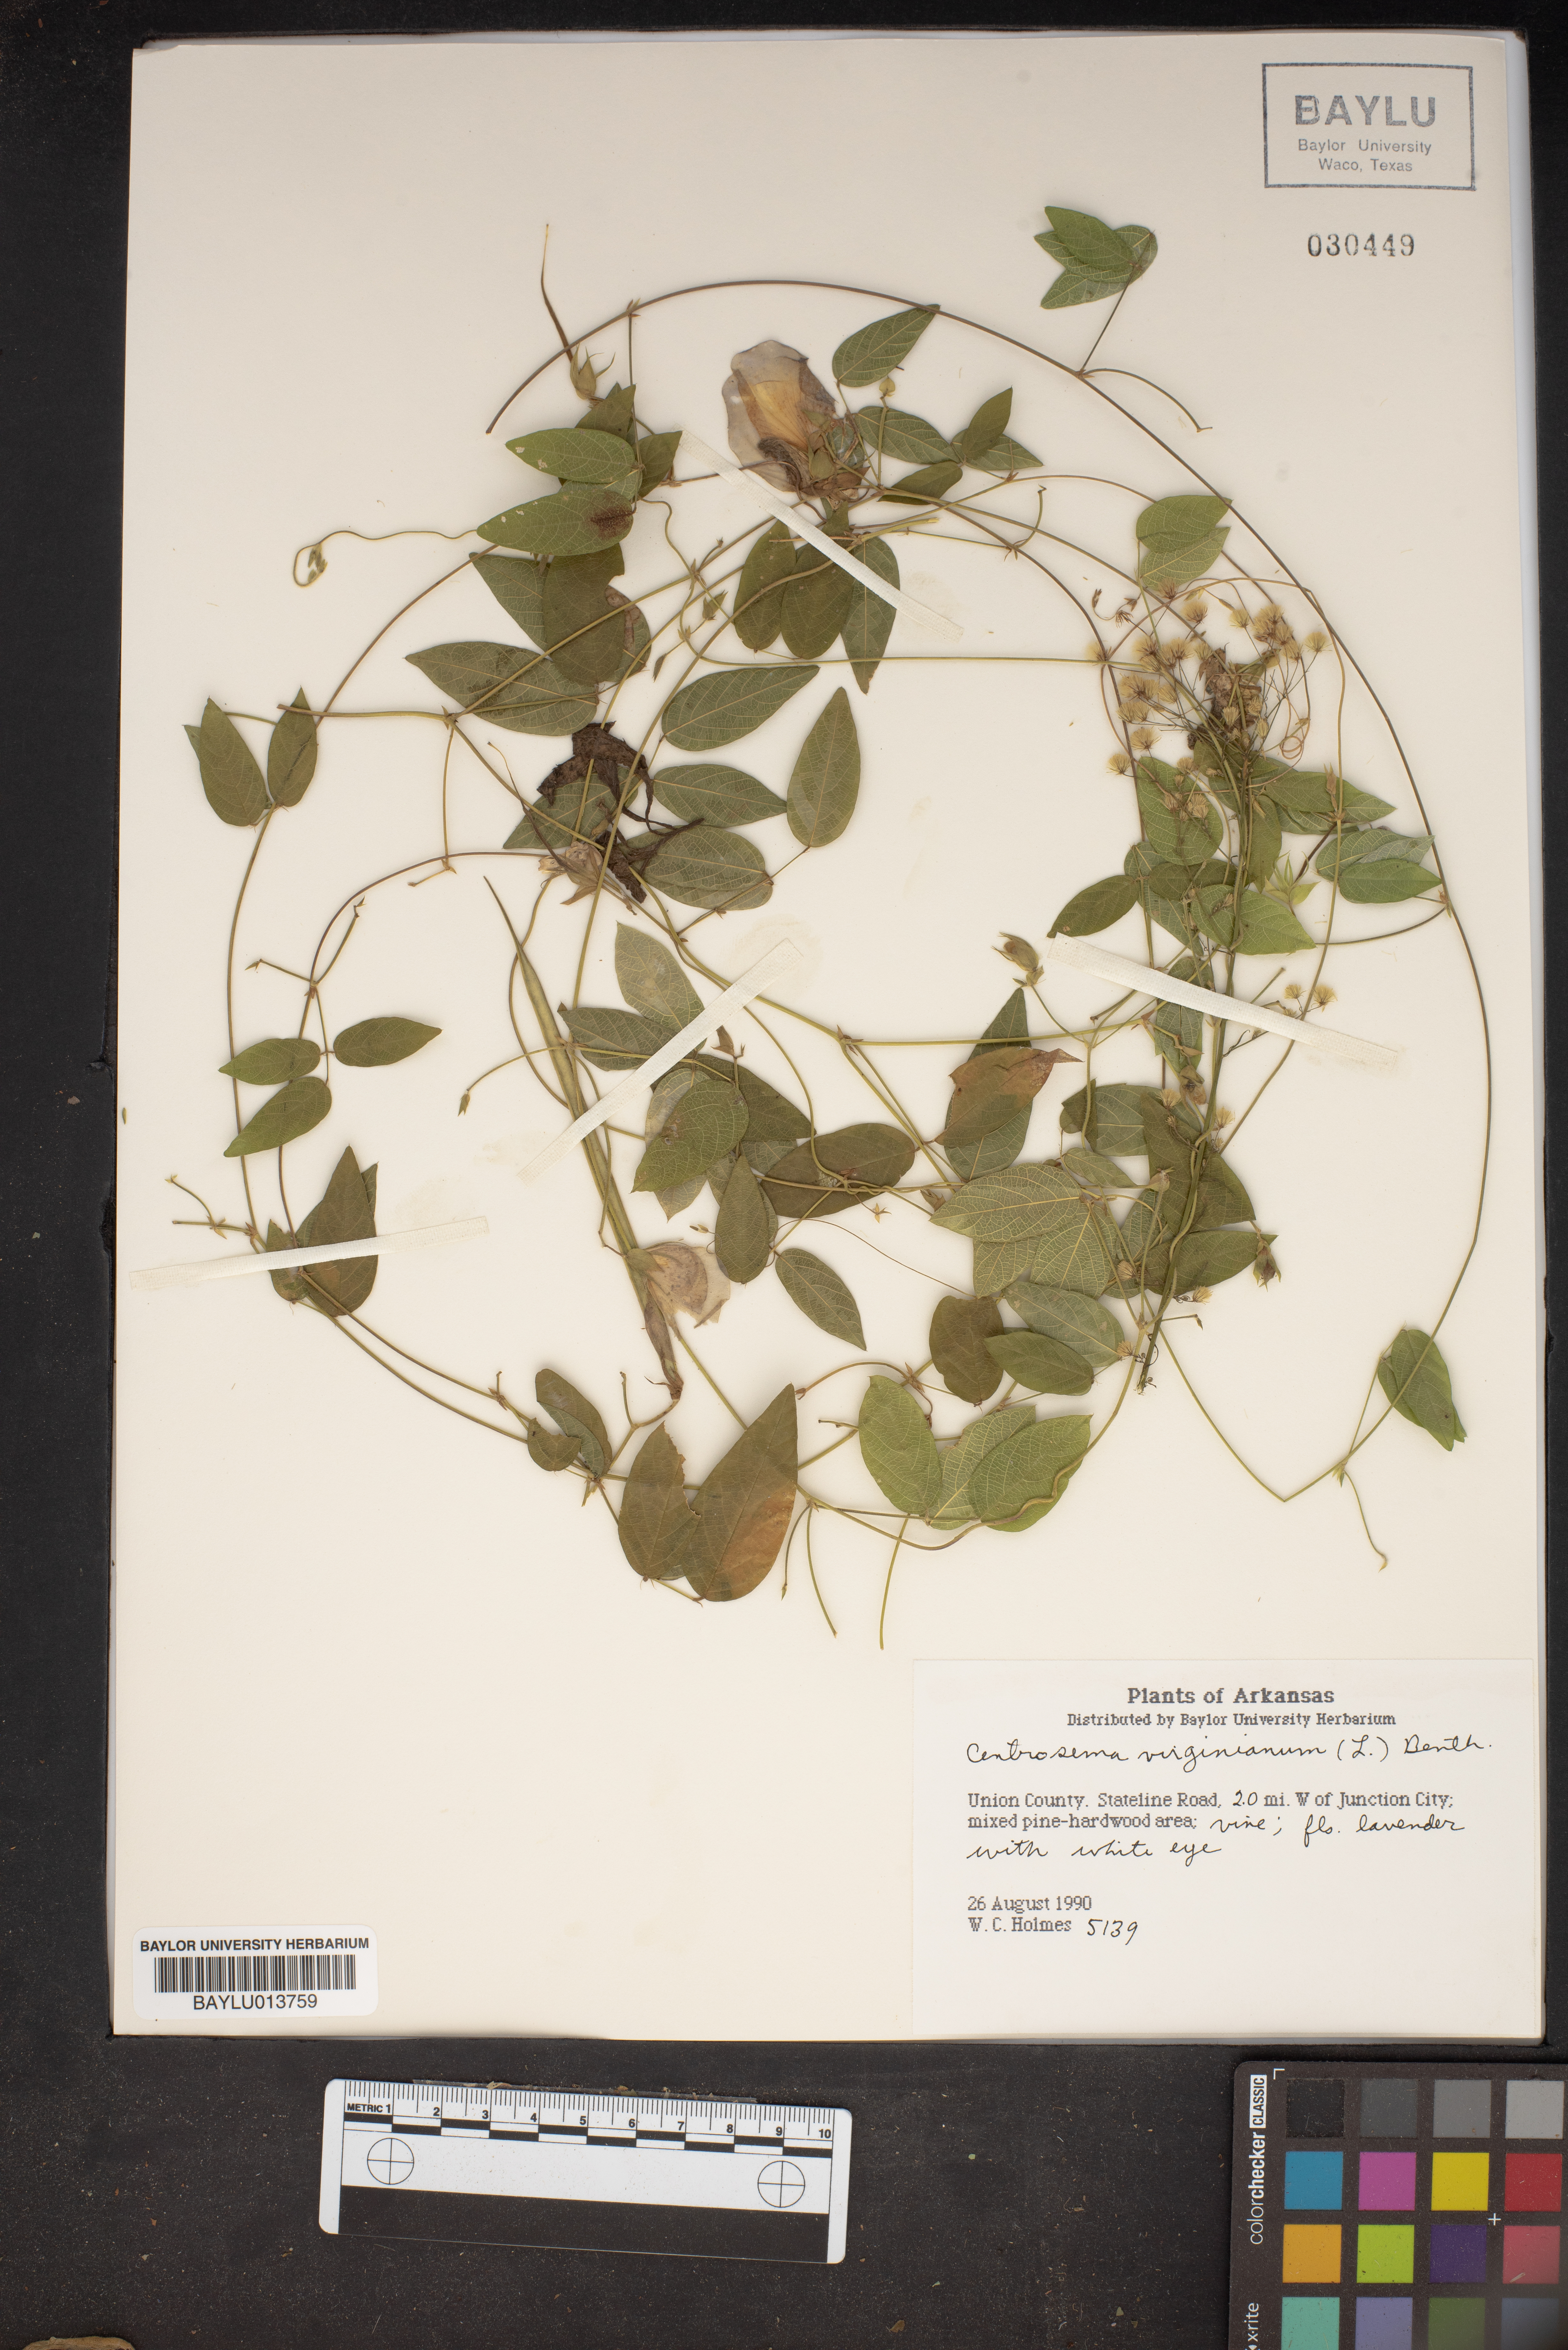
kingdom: Plantae
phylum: Tracheophyta
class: Magnoliopsida
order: Fabales
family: Fabaceae
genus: Centrosema
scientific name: Centrosema virginianum
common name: Butterfly-pea
